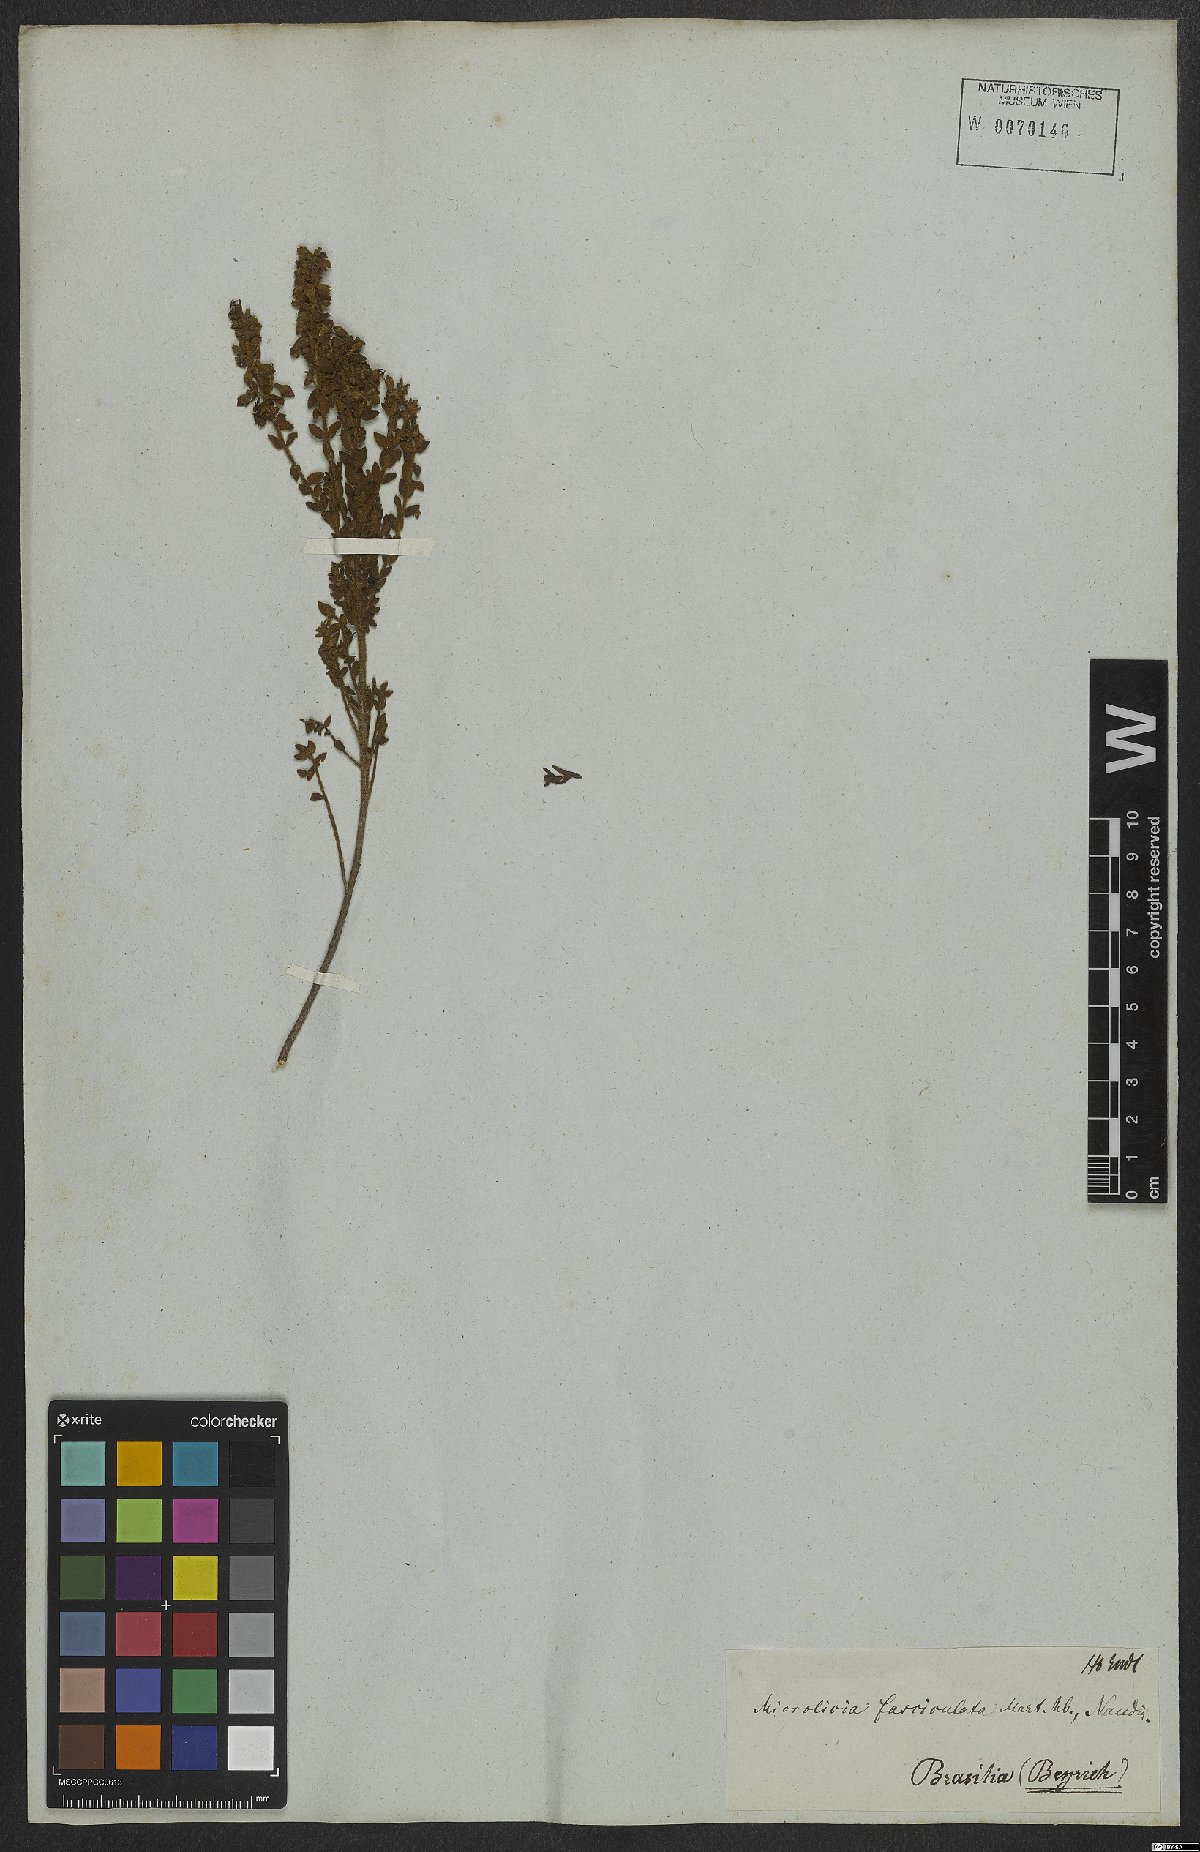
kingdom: Plantae
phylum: Tracheophyta
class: Magnoliopsida
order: Myrtales
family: Melastomataceae
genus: Microlicia
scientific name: Microlicia fasciculata
